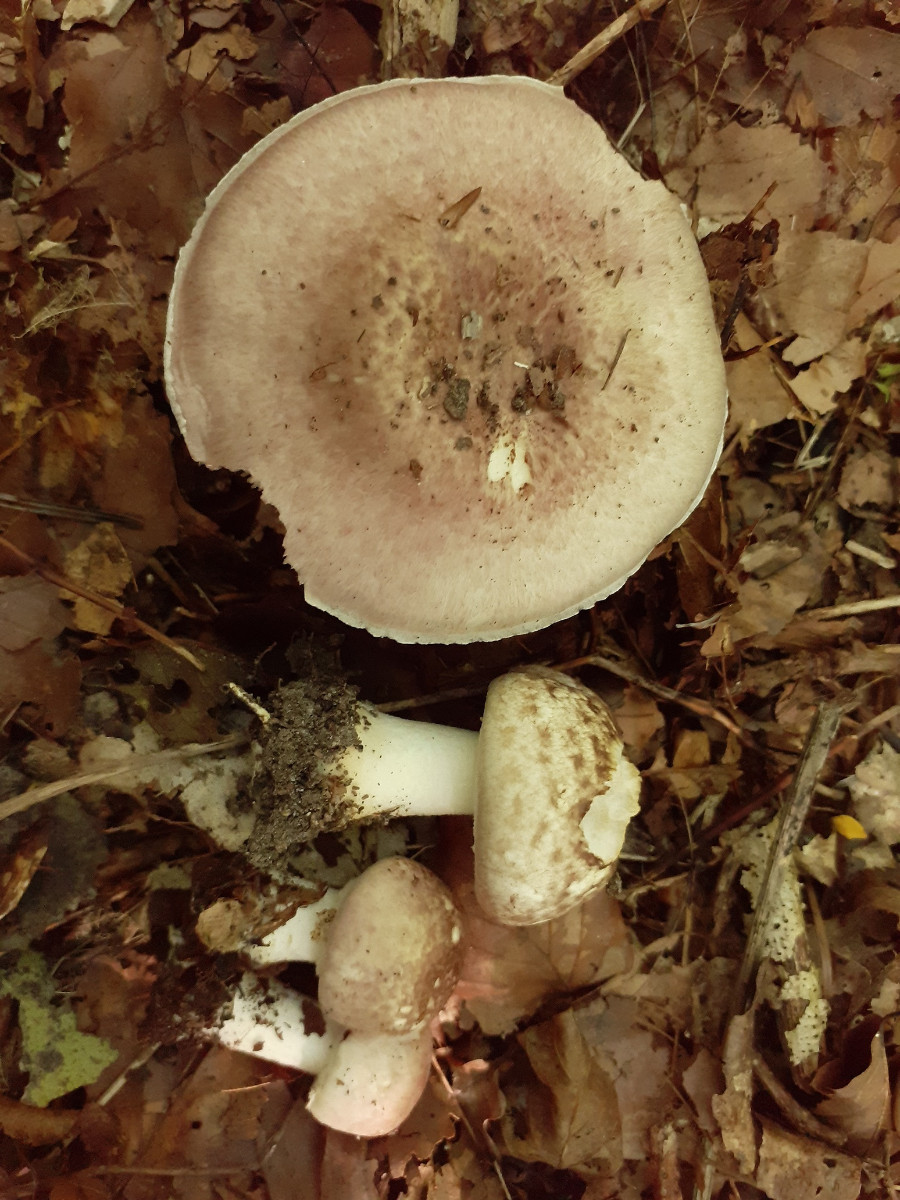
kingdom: Fungi
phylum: Basidiomycota
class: Agaricomycetes
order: Agaricales
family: Agaricaceae
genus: Agaricus
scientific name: Agaricus brunneolus
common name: purpur-champignon
